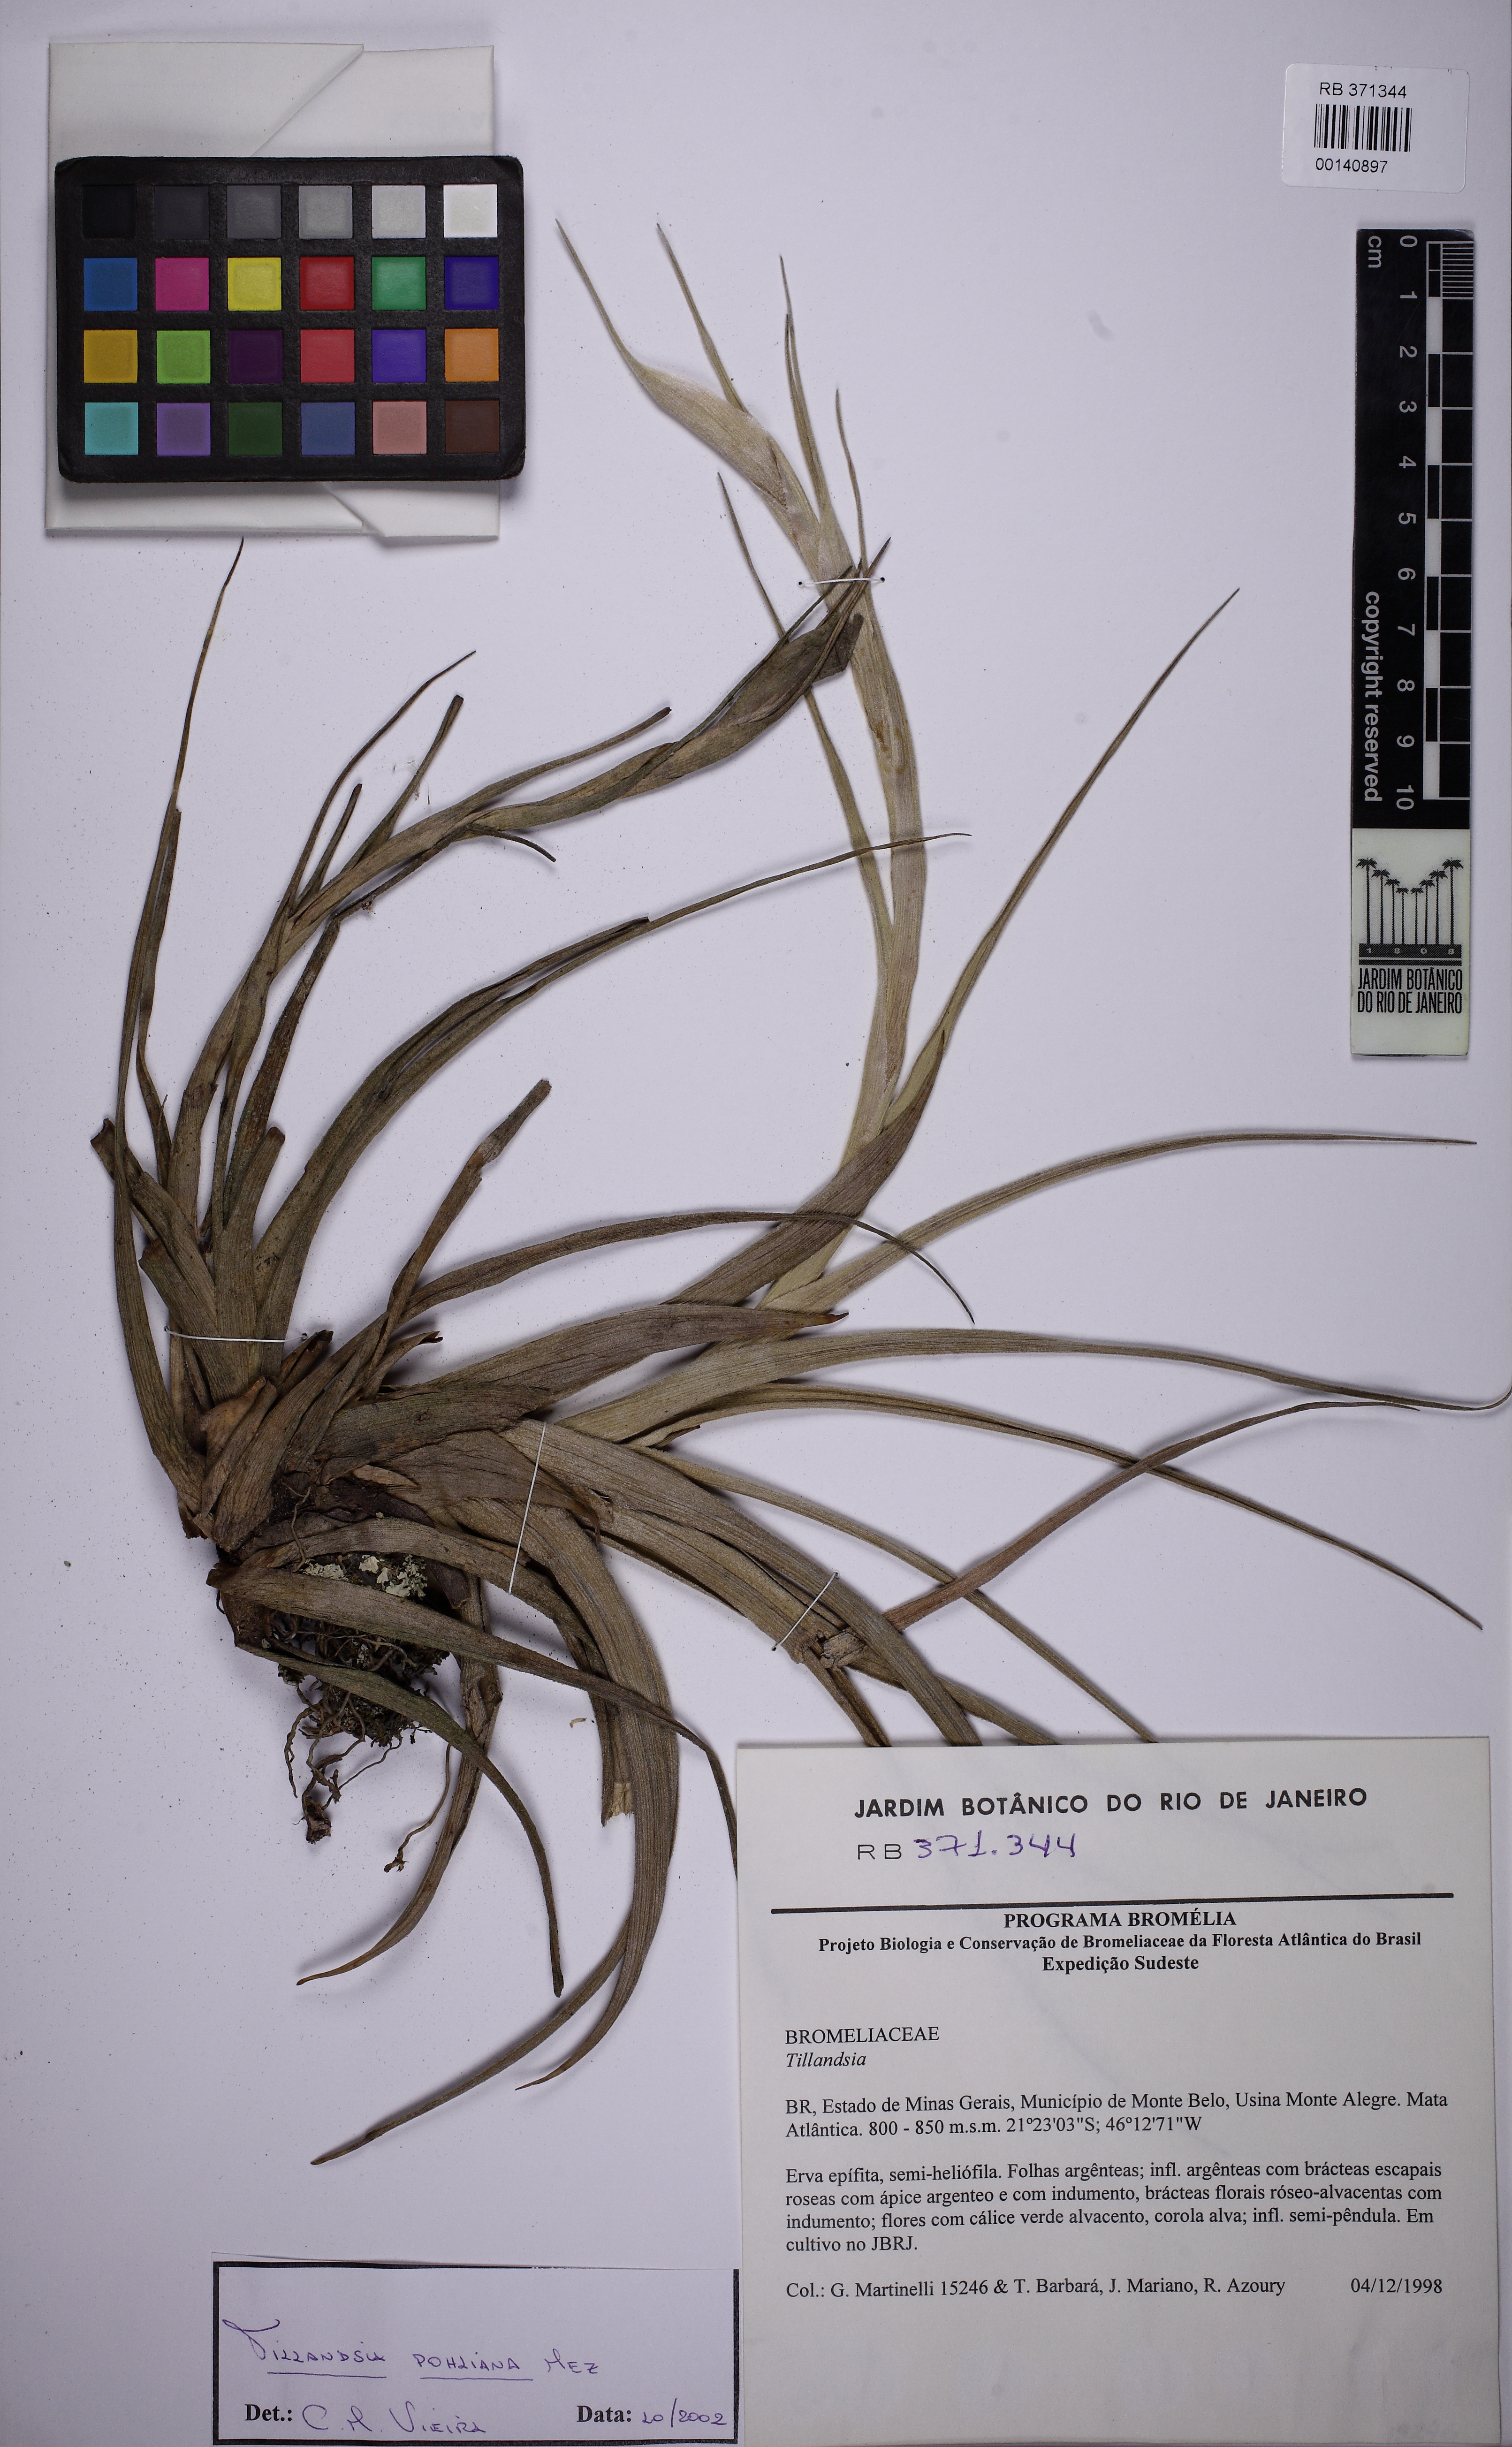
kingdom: Plantae
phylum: Tracheophyta
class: Liliopsida
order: Poales
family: Bromeliaceae
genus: Tillandsia
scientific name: Tillandsia pohliana
